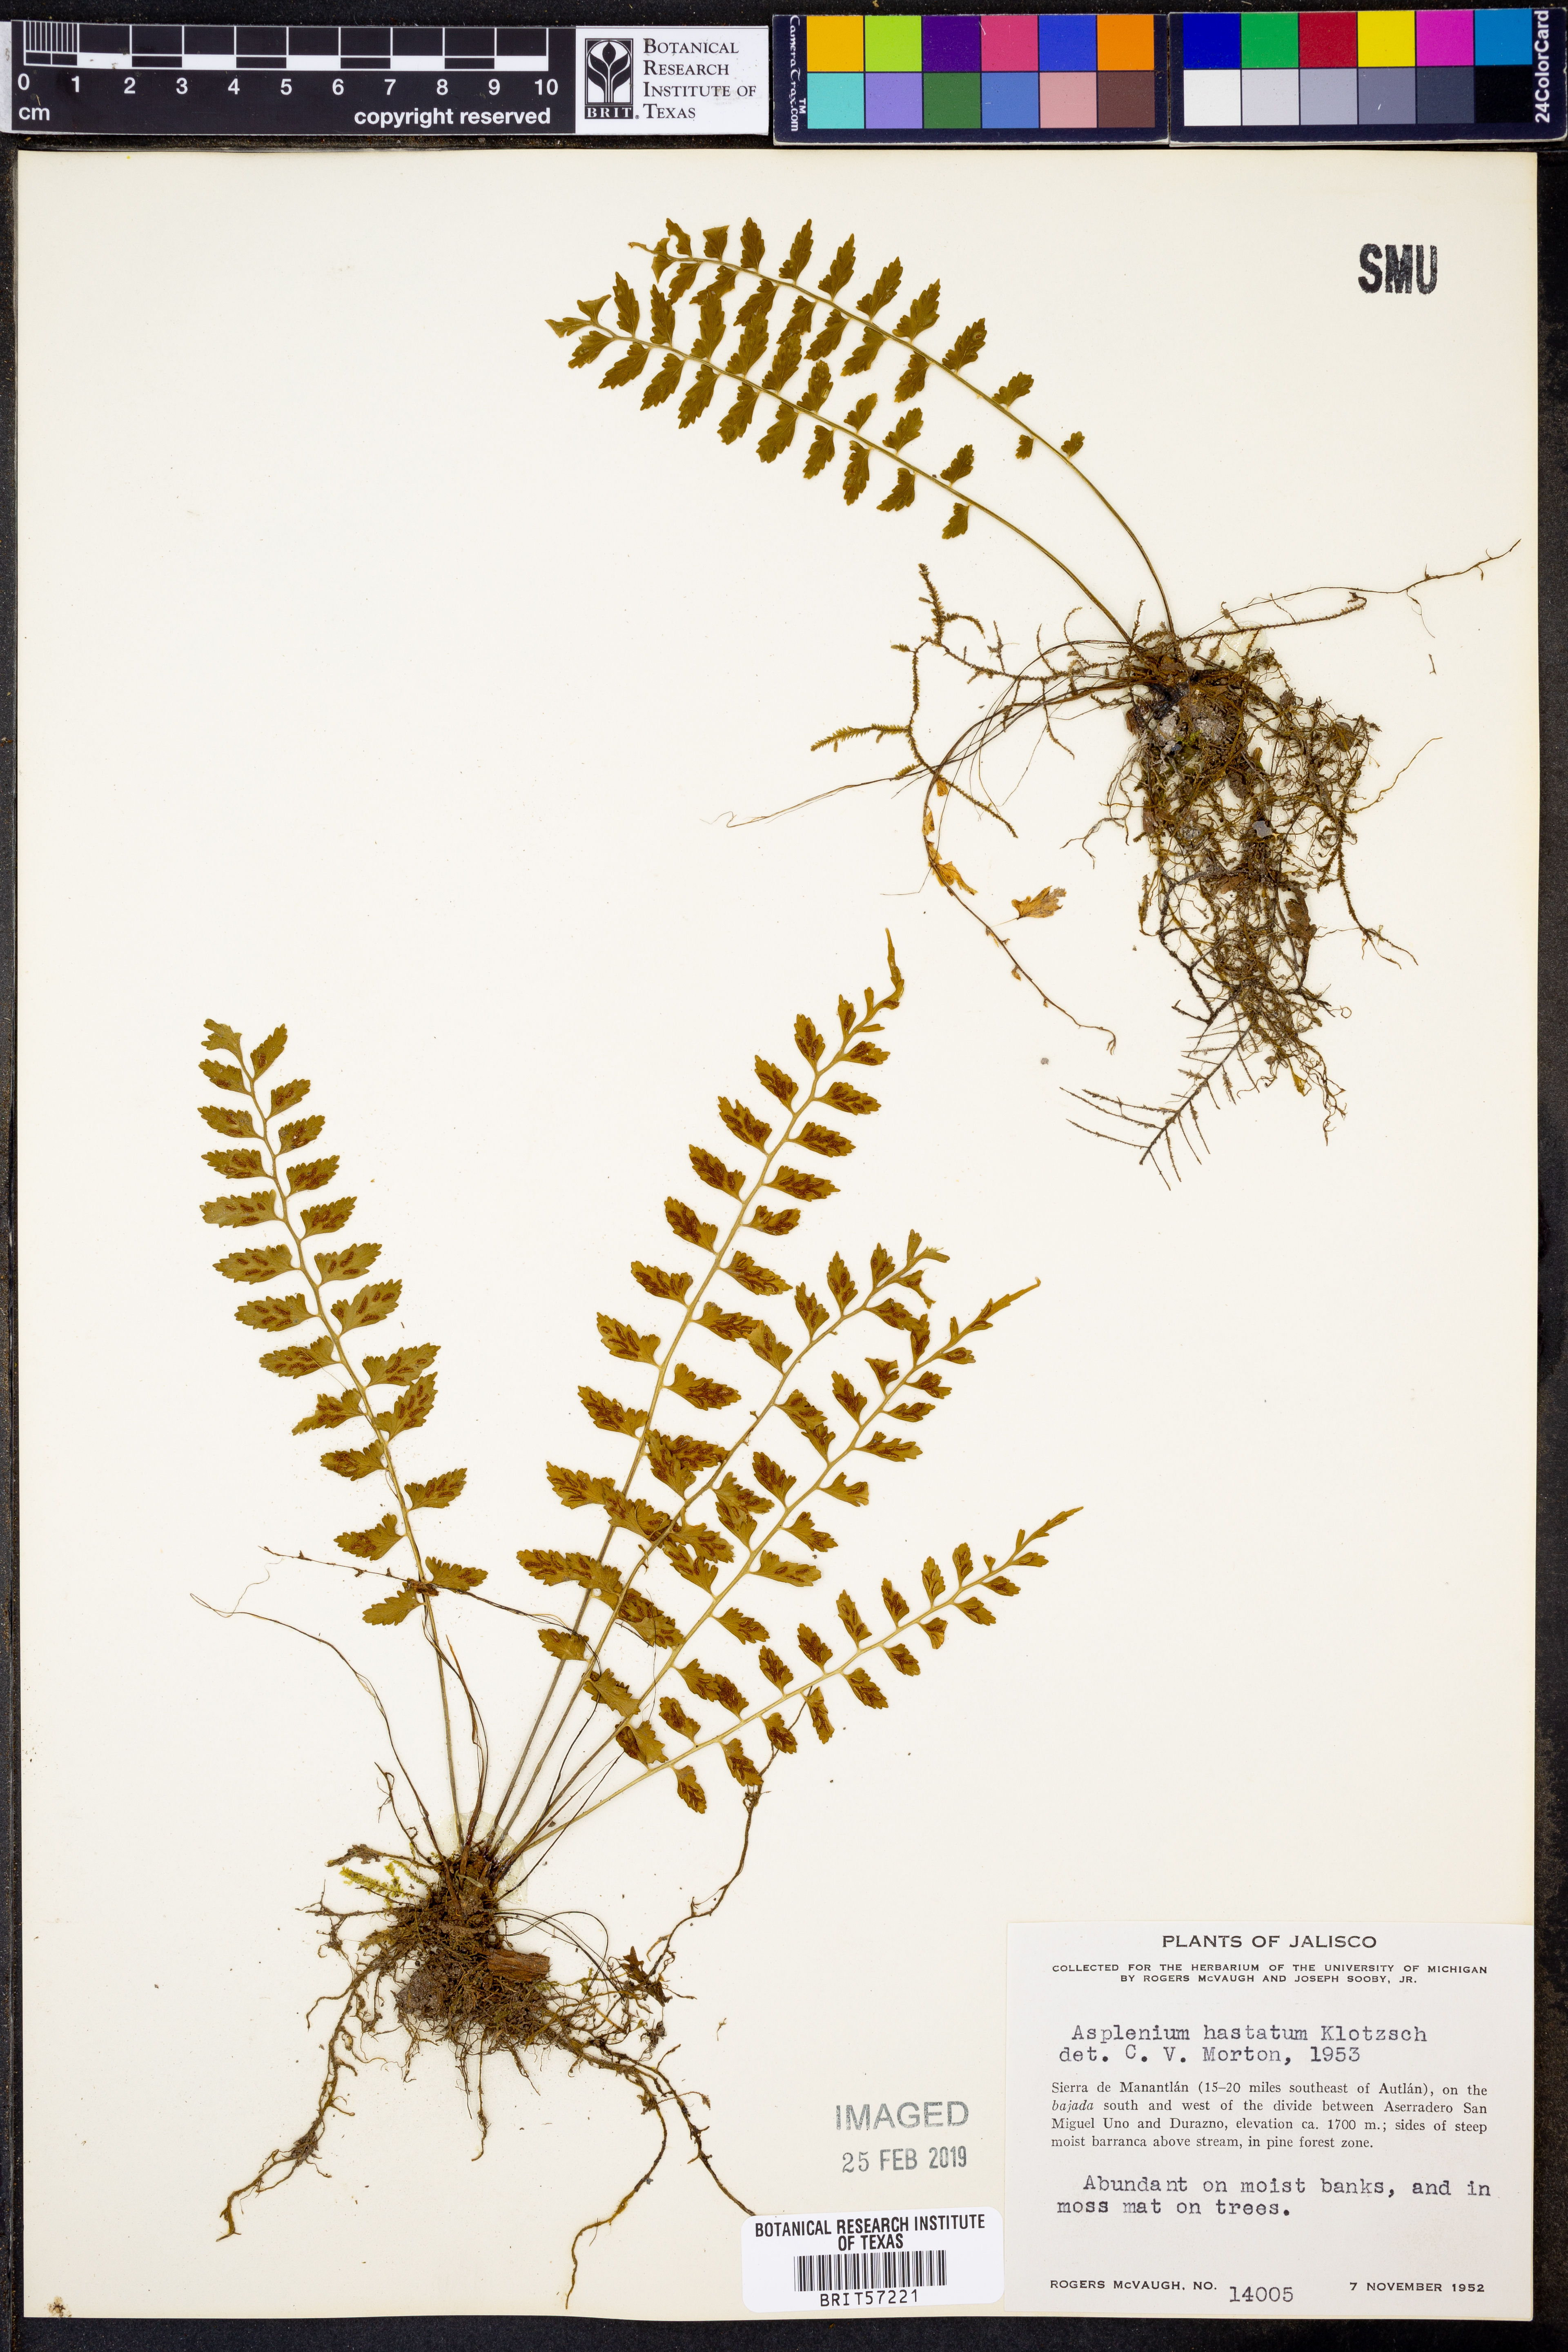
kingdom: Plantae
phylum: Tracheophyta
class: Polypodiopsida
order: Polypodiales
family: Aspleniaceae
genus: Asplenium
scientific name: Asplenium hastatum
